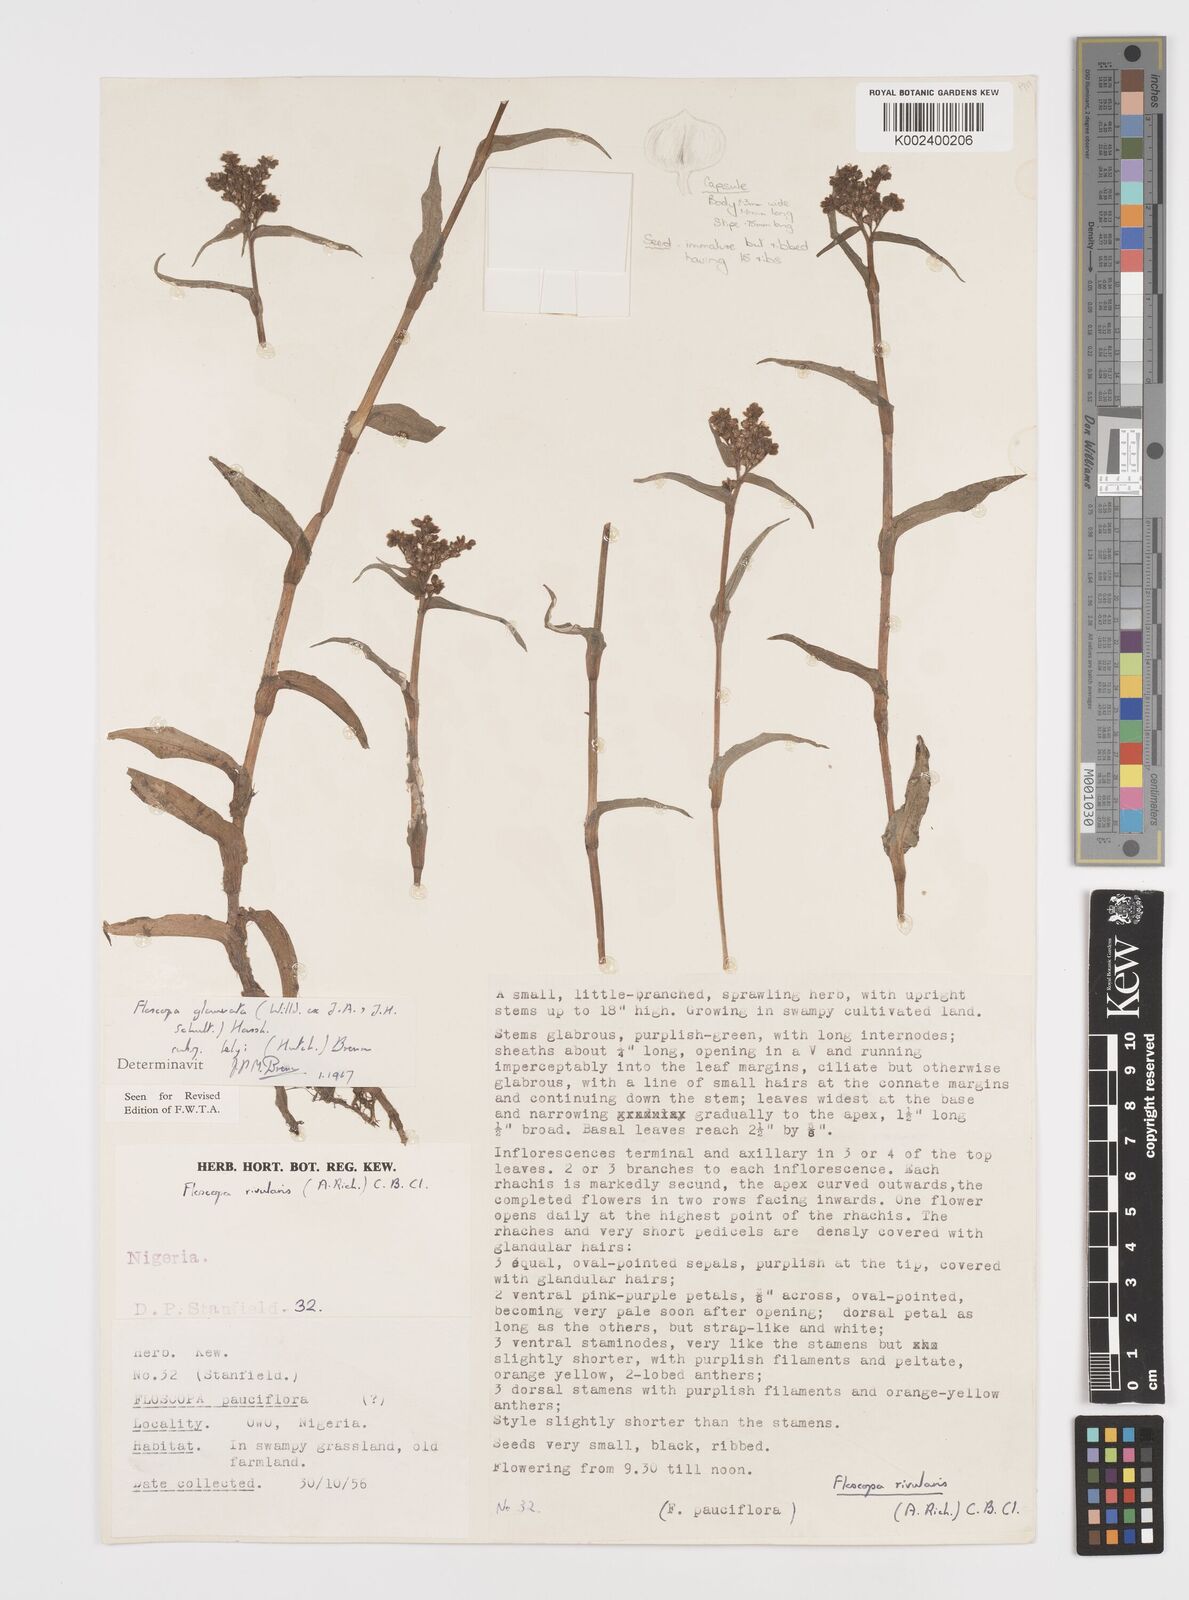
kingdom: Plantae
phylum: Tracheophyta
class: Liliopsida
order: Commelinales
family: Commelinaceae
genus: Floscopa
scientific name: Floscopa glomerata
